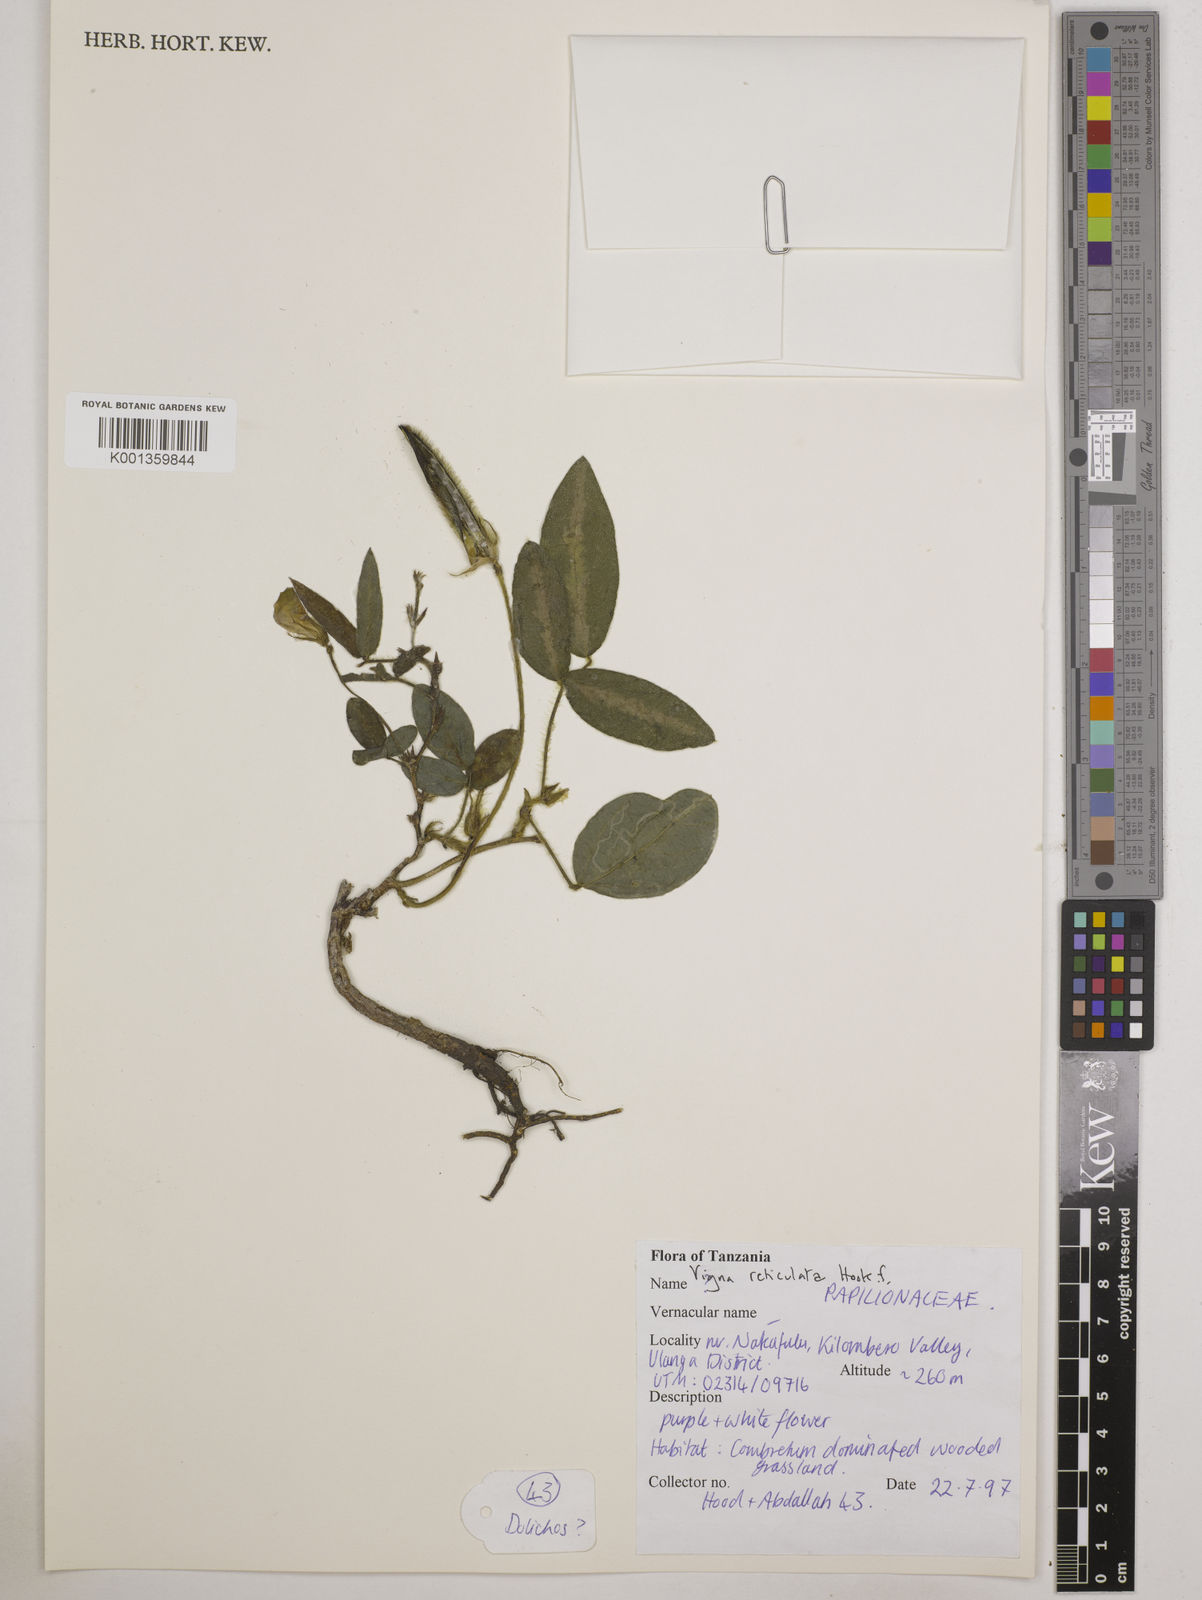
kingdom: Plantae
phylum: Tracheophyta
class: Magnoliopsida
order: Fabales
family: Fabaceae
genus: Vigna
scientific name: Vigna reticulata
